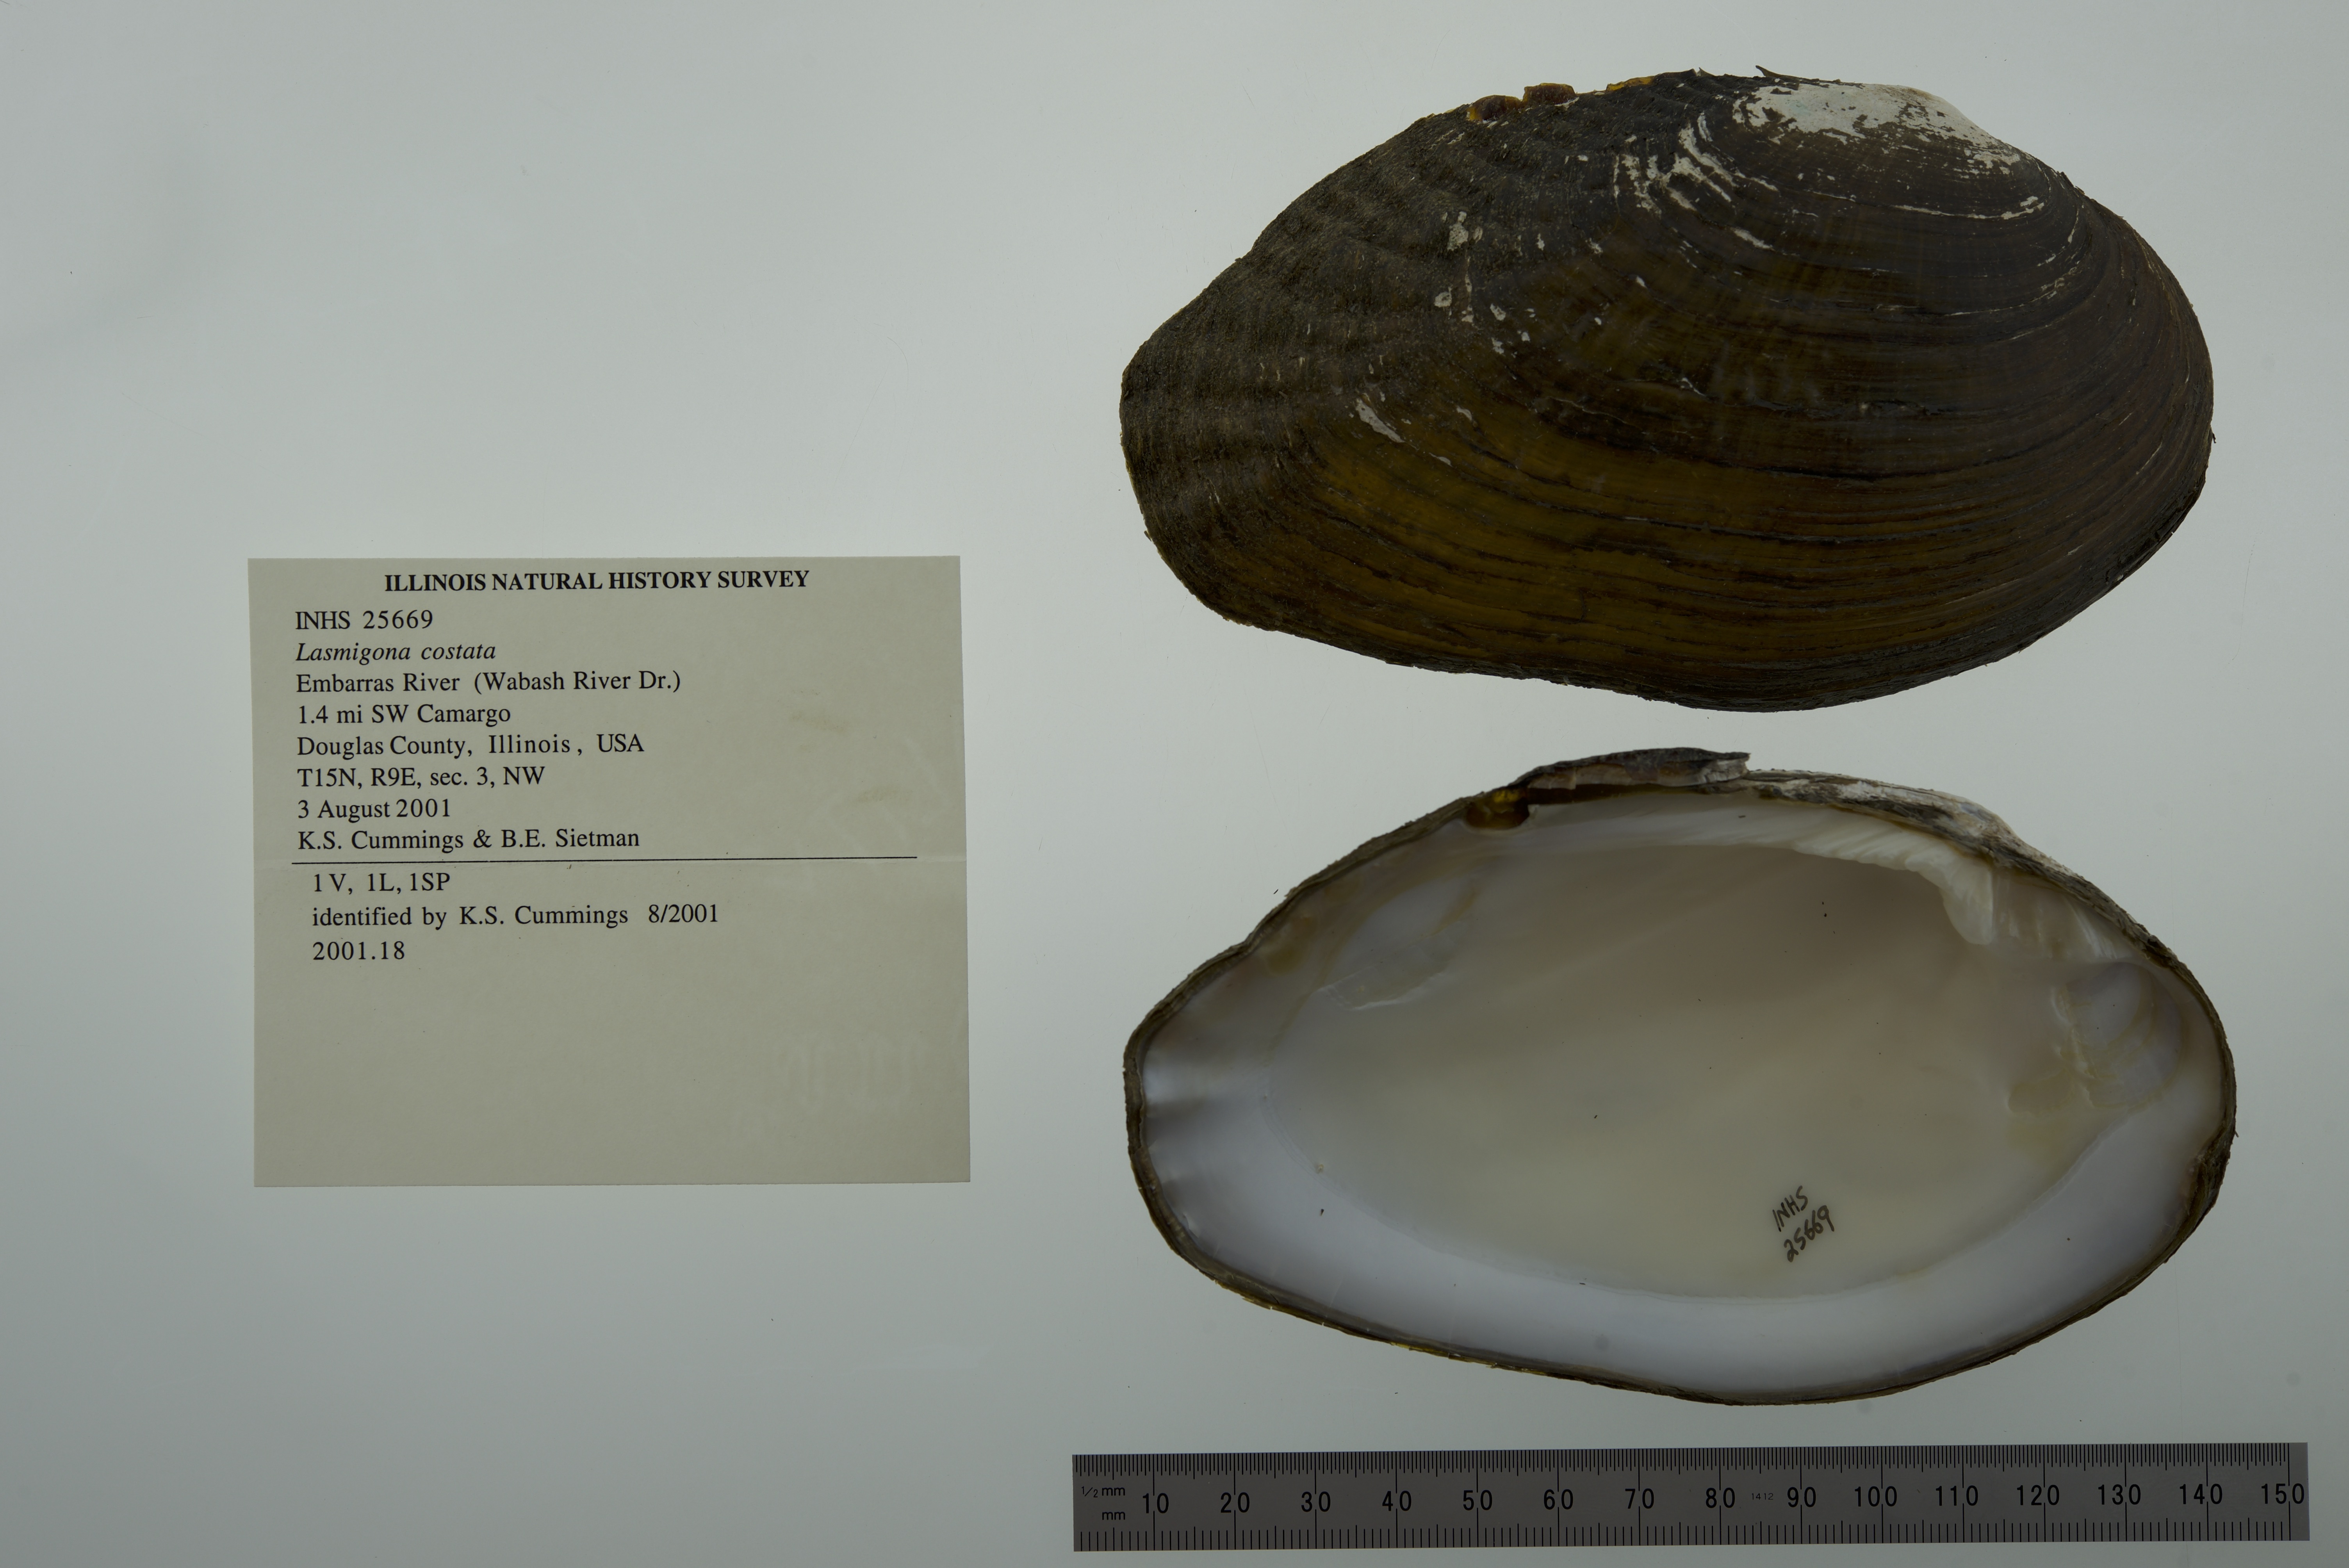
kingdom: Animalia
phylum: Mollusca
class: Bivalvia
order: Unionida
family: Unionidae
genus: Lasmigona
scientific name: Lasmigona costata
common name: Flutedshell
